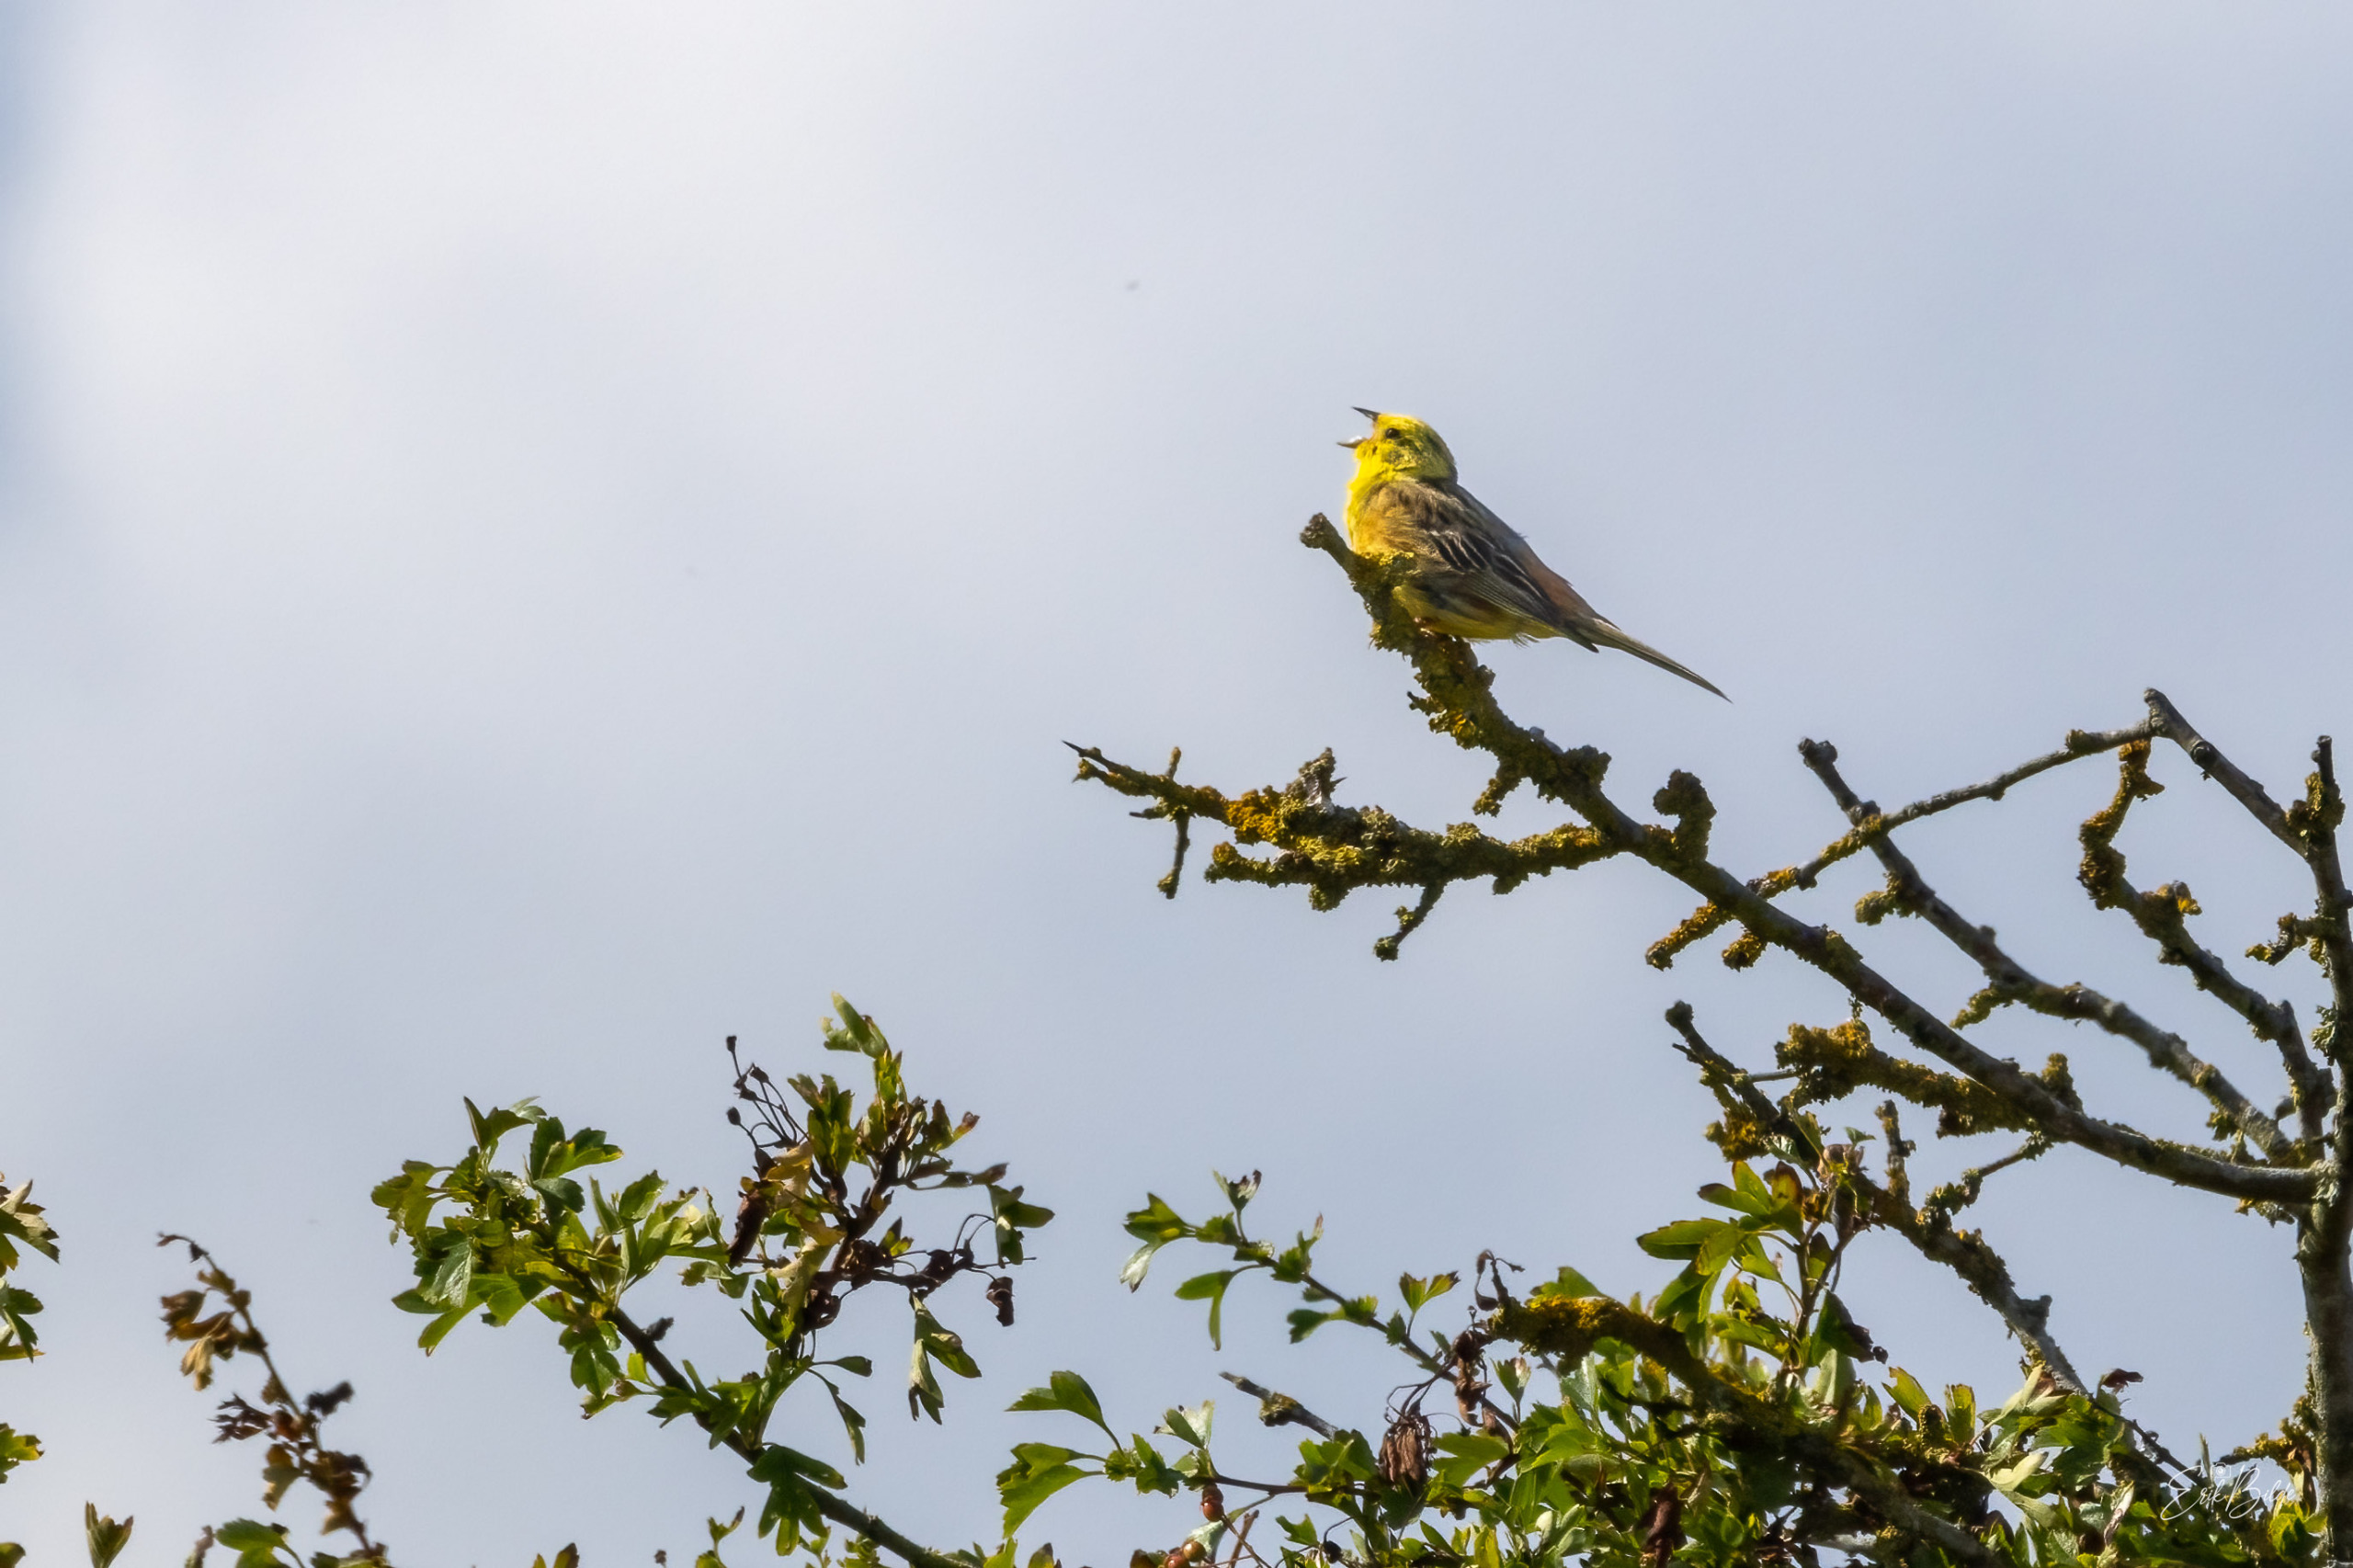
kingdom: Animalia
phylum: Chordata
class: Aves
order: Passeriformes
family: Emberizidae
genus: Emberiza
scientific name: Emberiza citrinella
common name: Gulspurv
